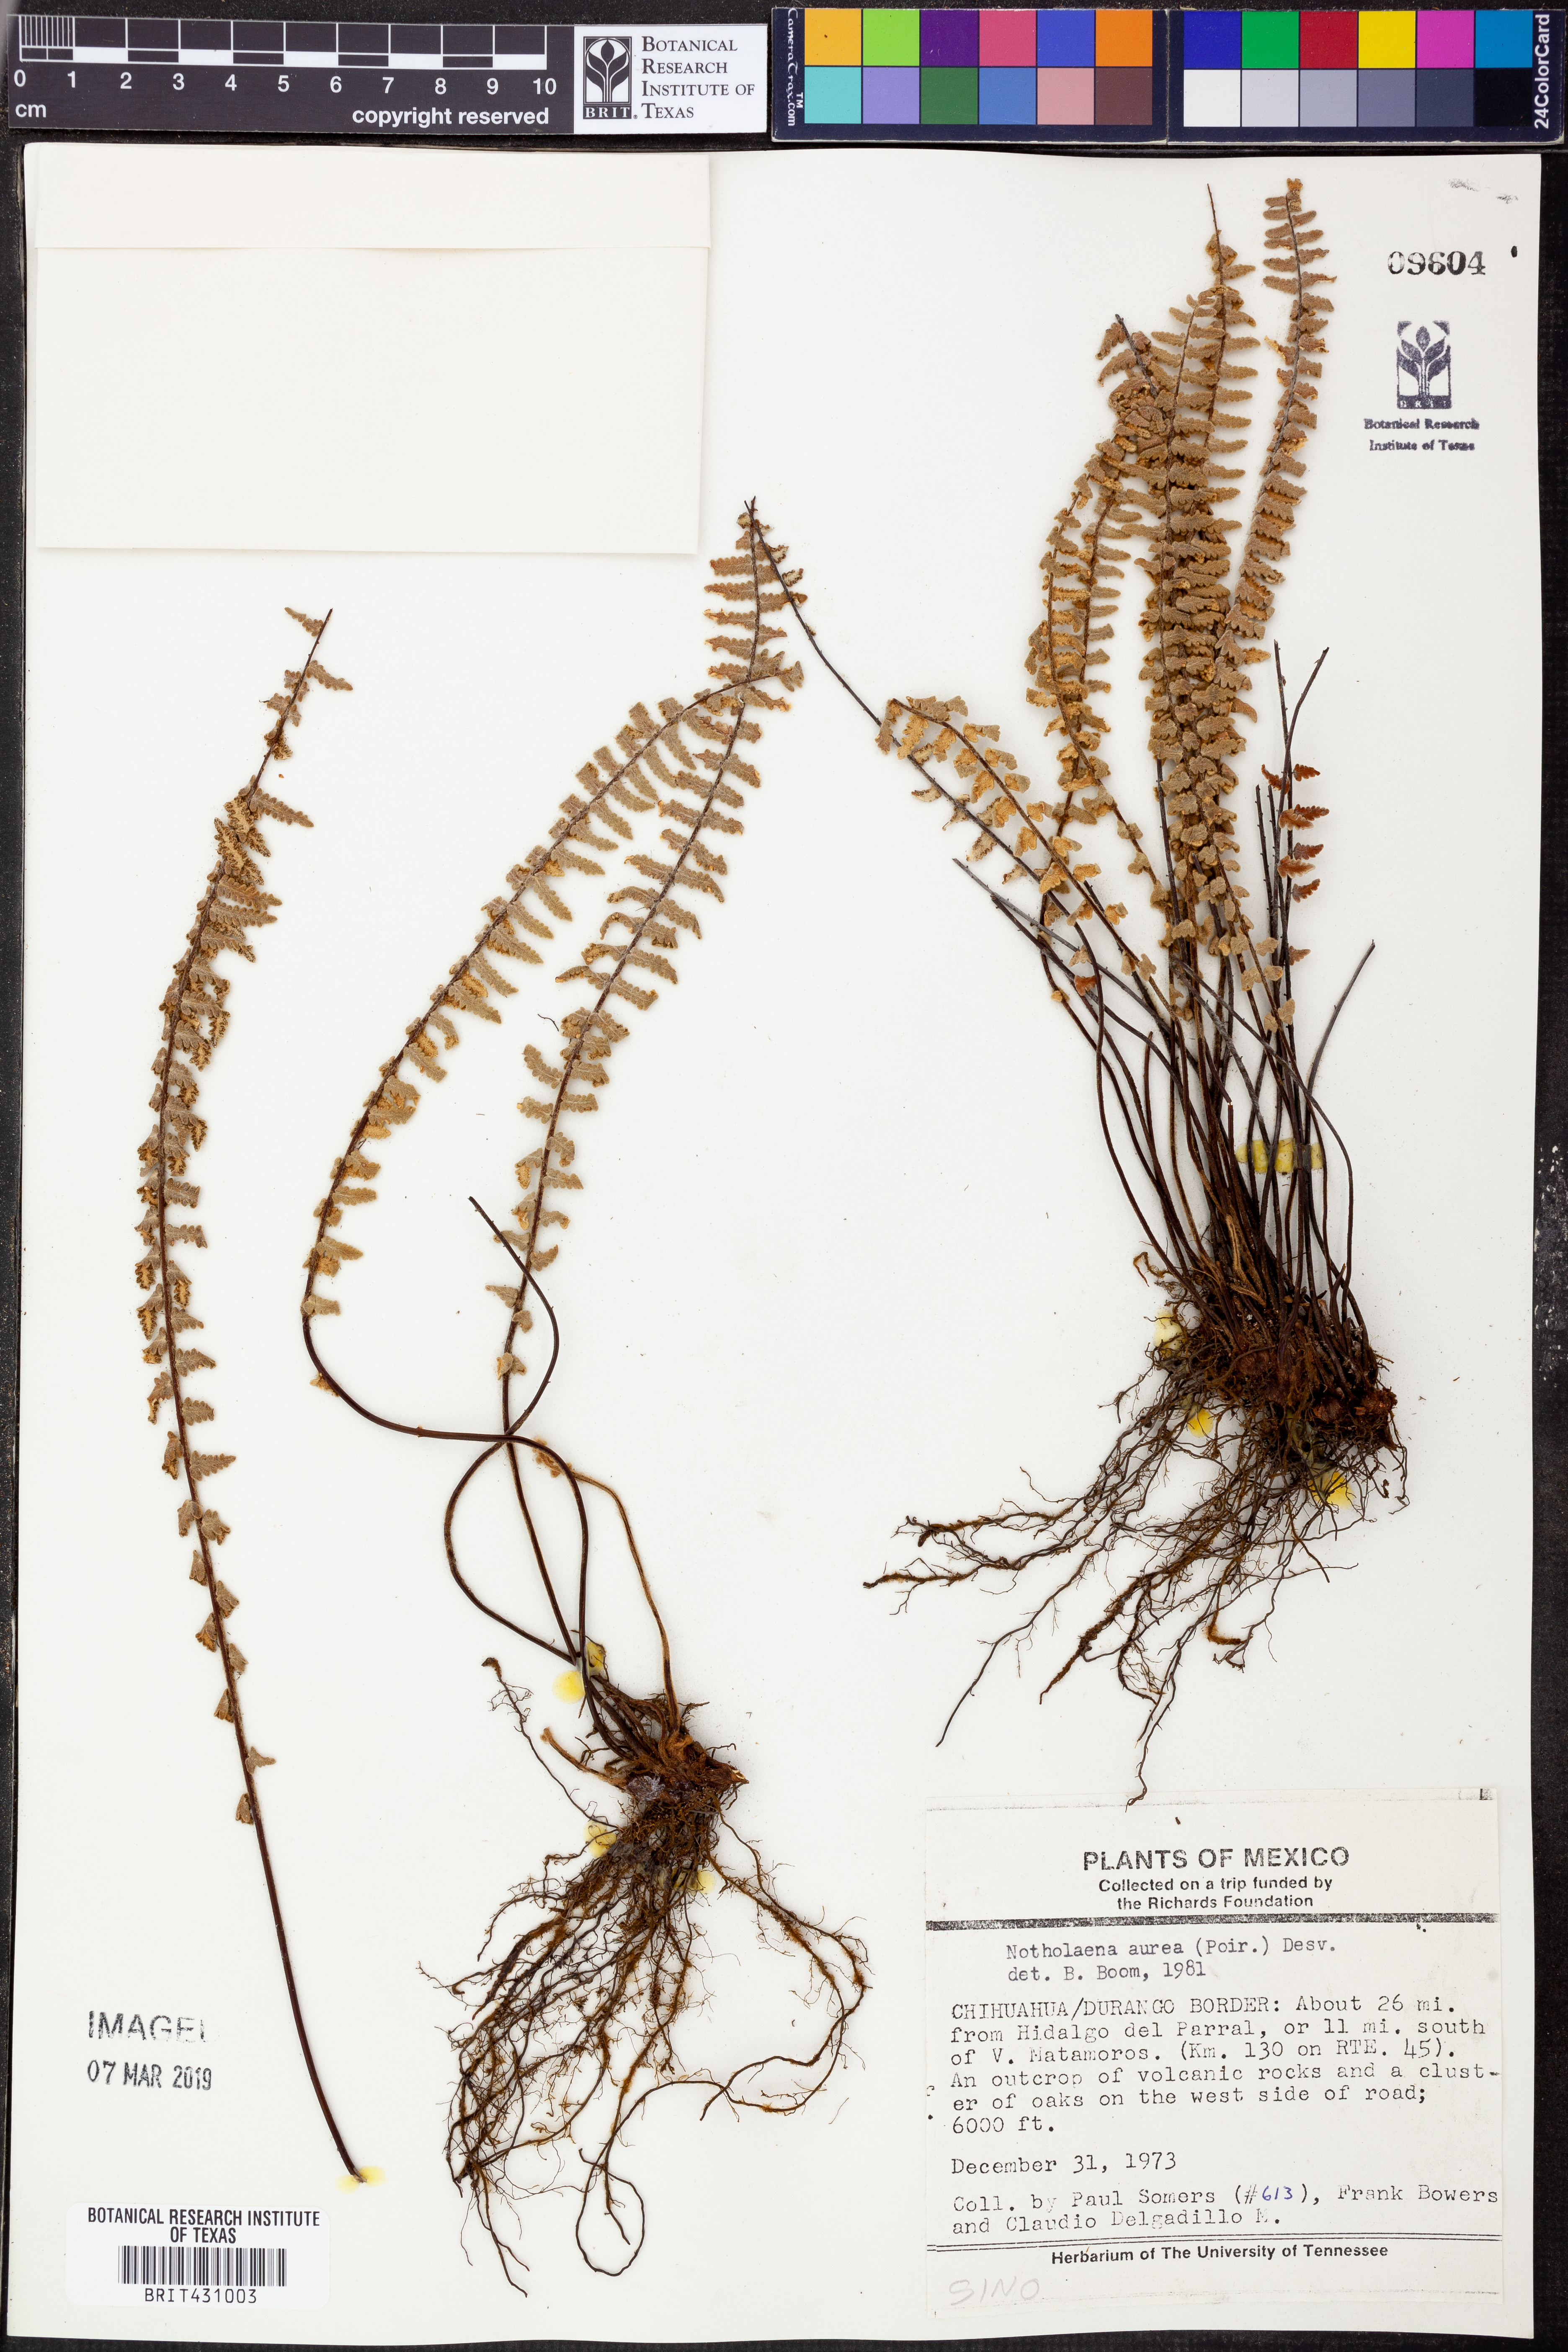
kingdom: Plantae
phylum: Tracheophyta
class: Polypodiopsida
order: Polypodiales
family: Pteridaceae
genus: Myriopteris
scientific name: Myriopteris aurea
